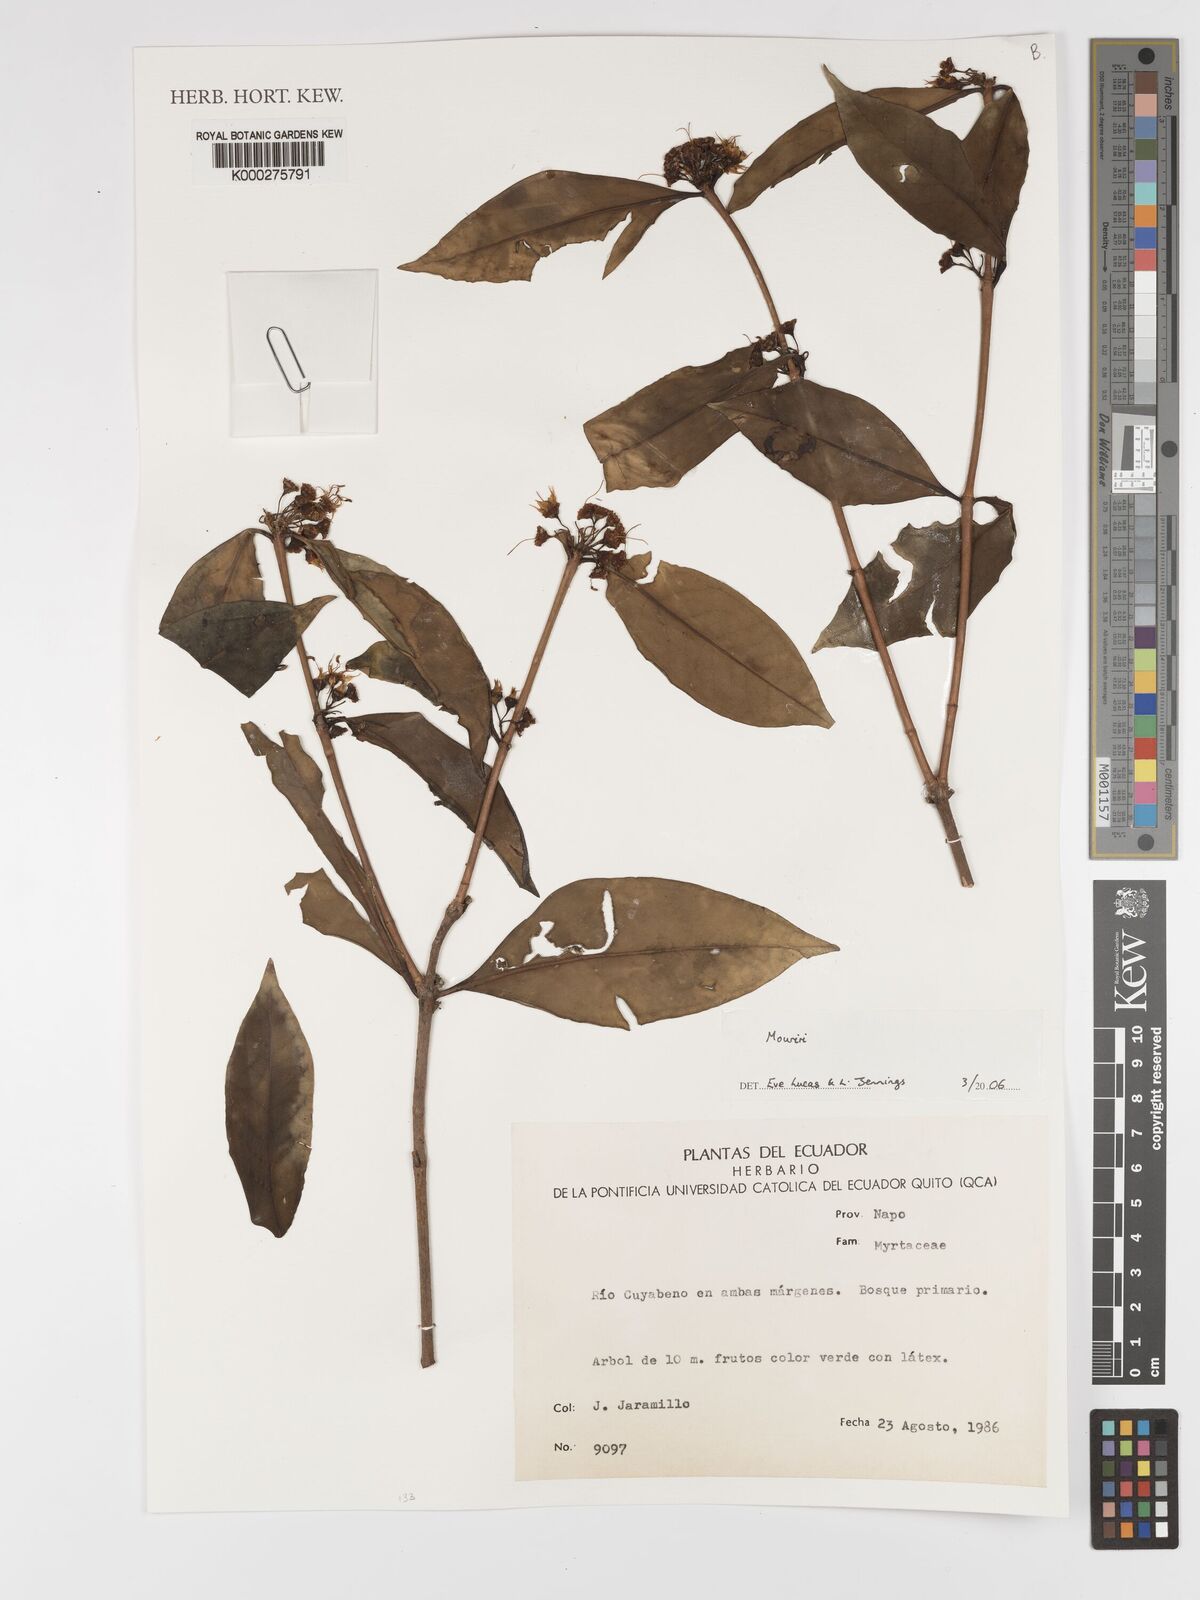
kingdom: Plantae
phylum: Tracheophyta
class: Magnoliopsida
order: Myrtales
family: Melastomataceae
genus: Mouriri
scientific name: Mouriri
